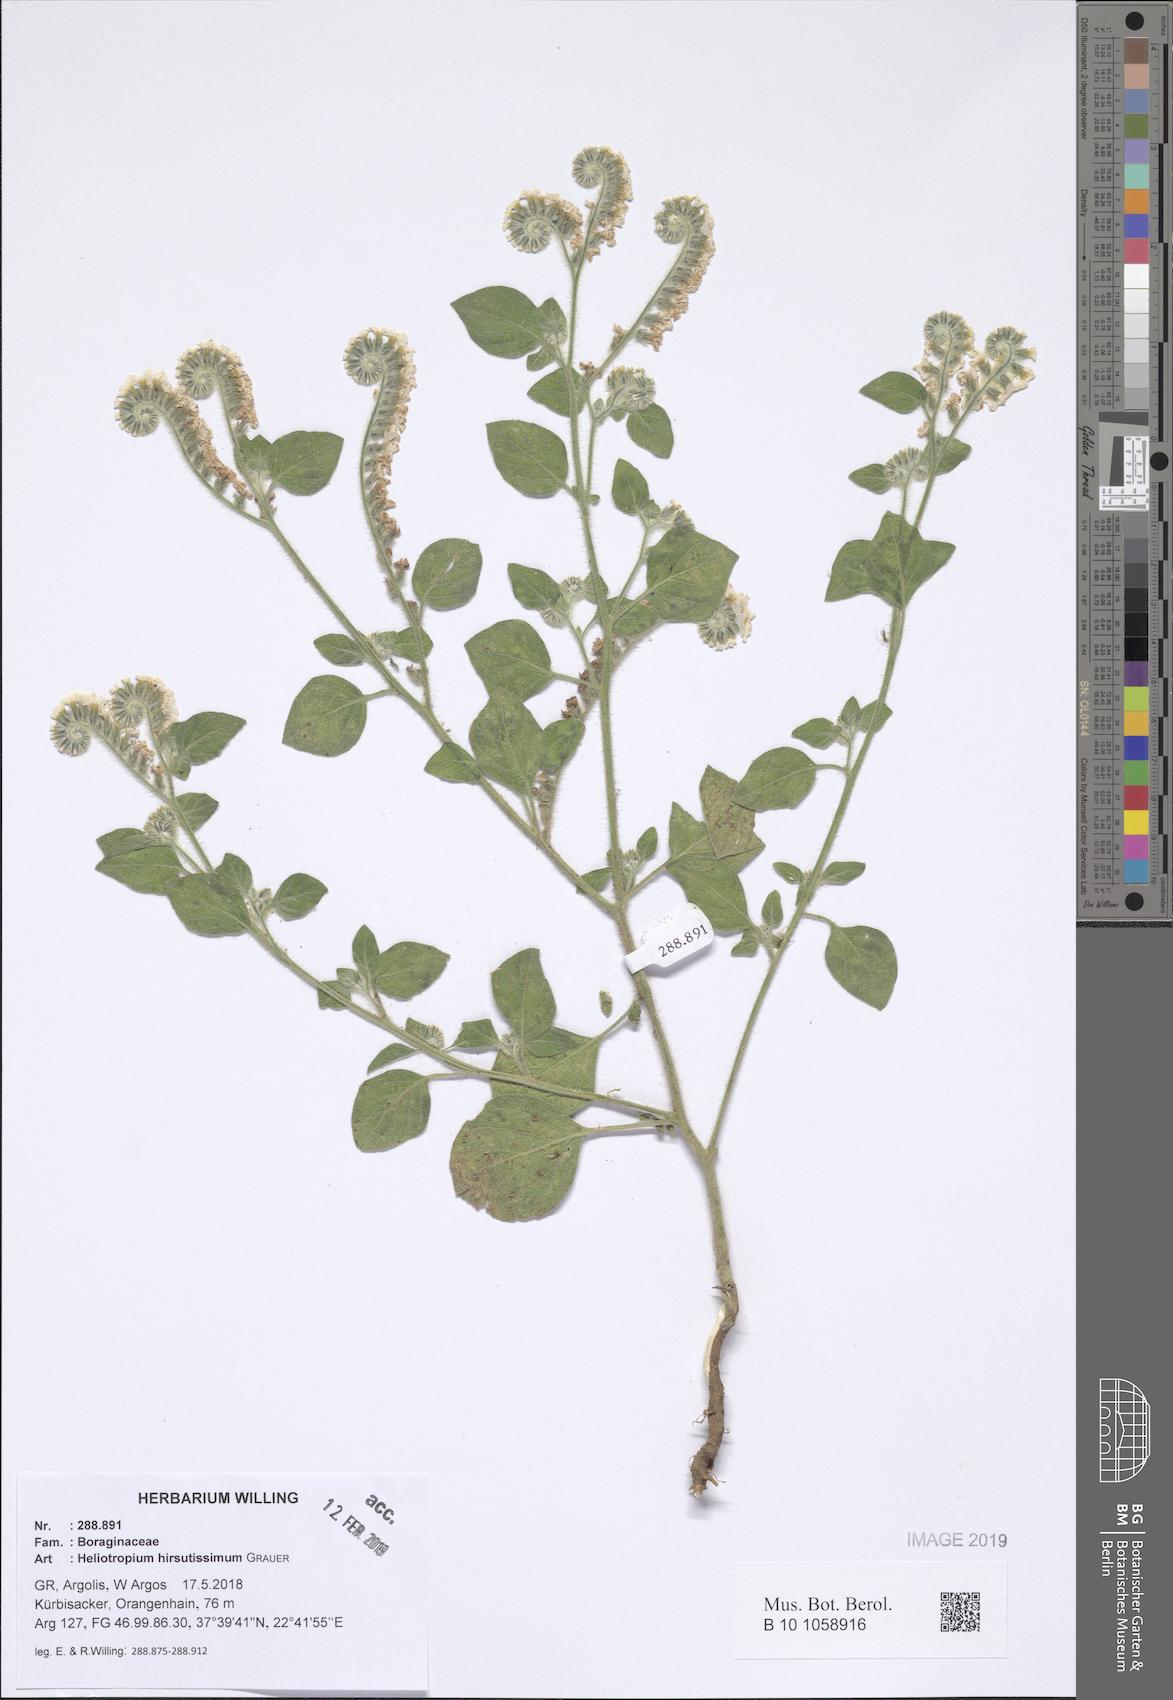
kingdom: Plantae
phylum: Tracheophyta
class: Magnoliopsida
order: Boraginales
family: Heliotropiaceae
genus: Heliotropium
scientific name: Heliotropium hirsutissimum
